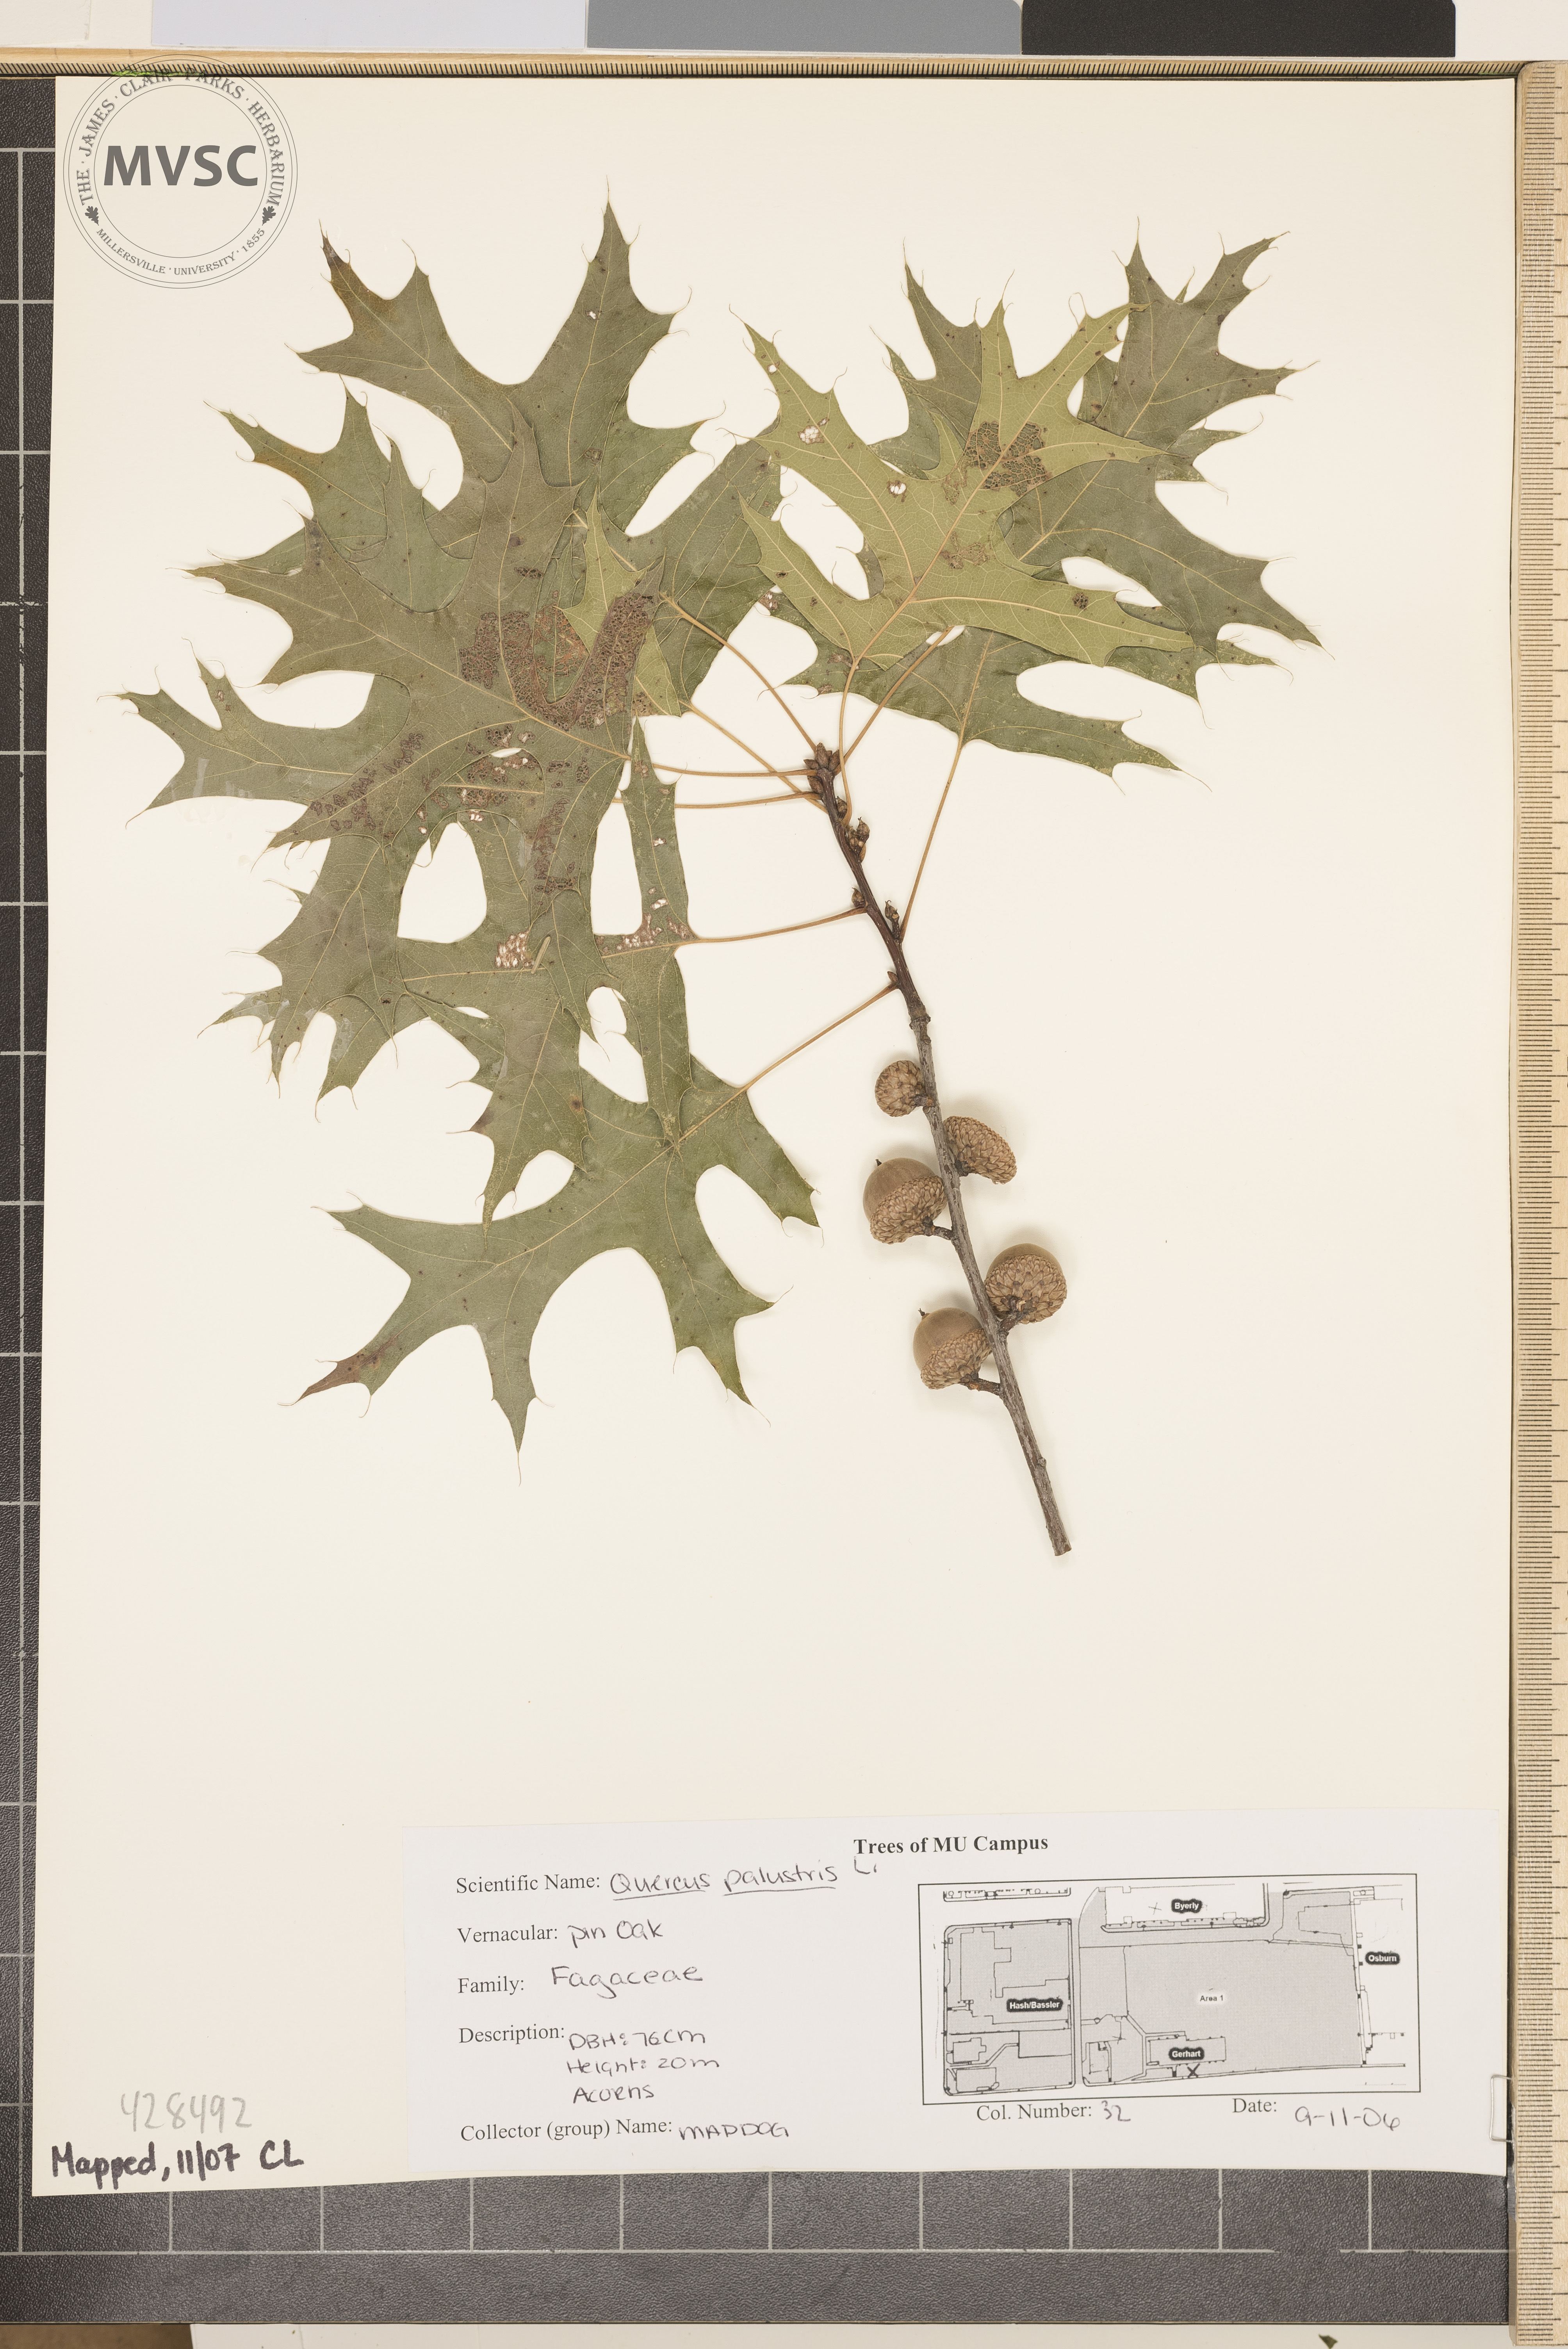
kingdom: Plantae
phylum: Tracheophyta
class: Magnoliopsida
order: Fagales
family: Fagaceae
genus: Quercus
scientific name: Quercus palustris
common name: Pin Oak
